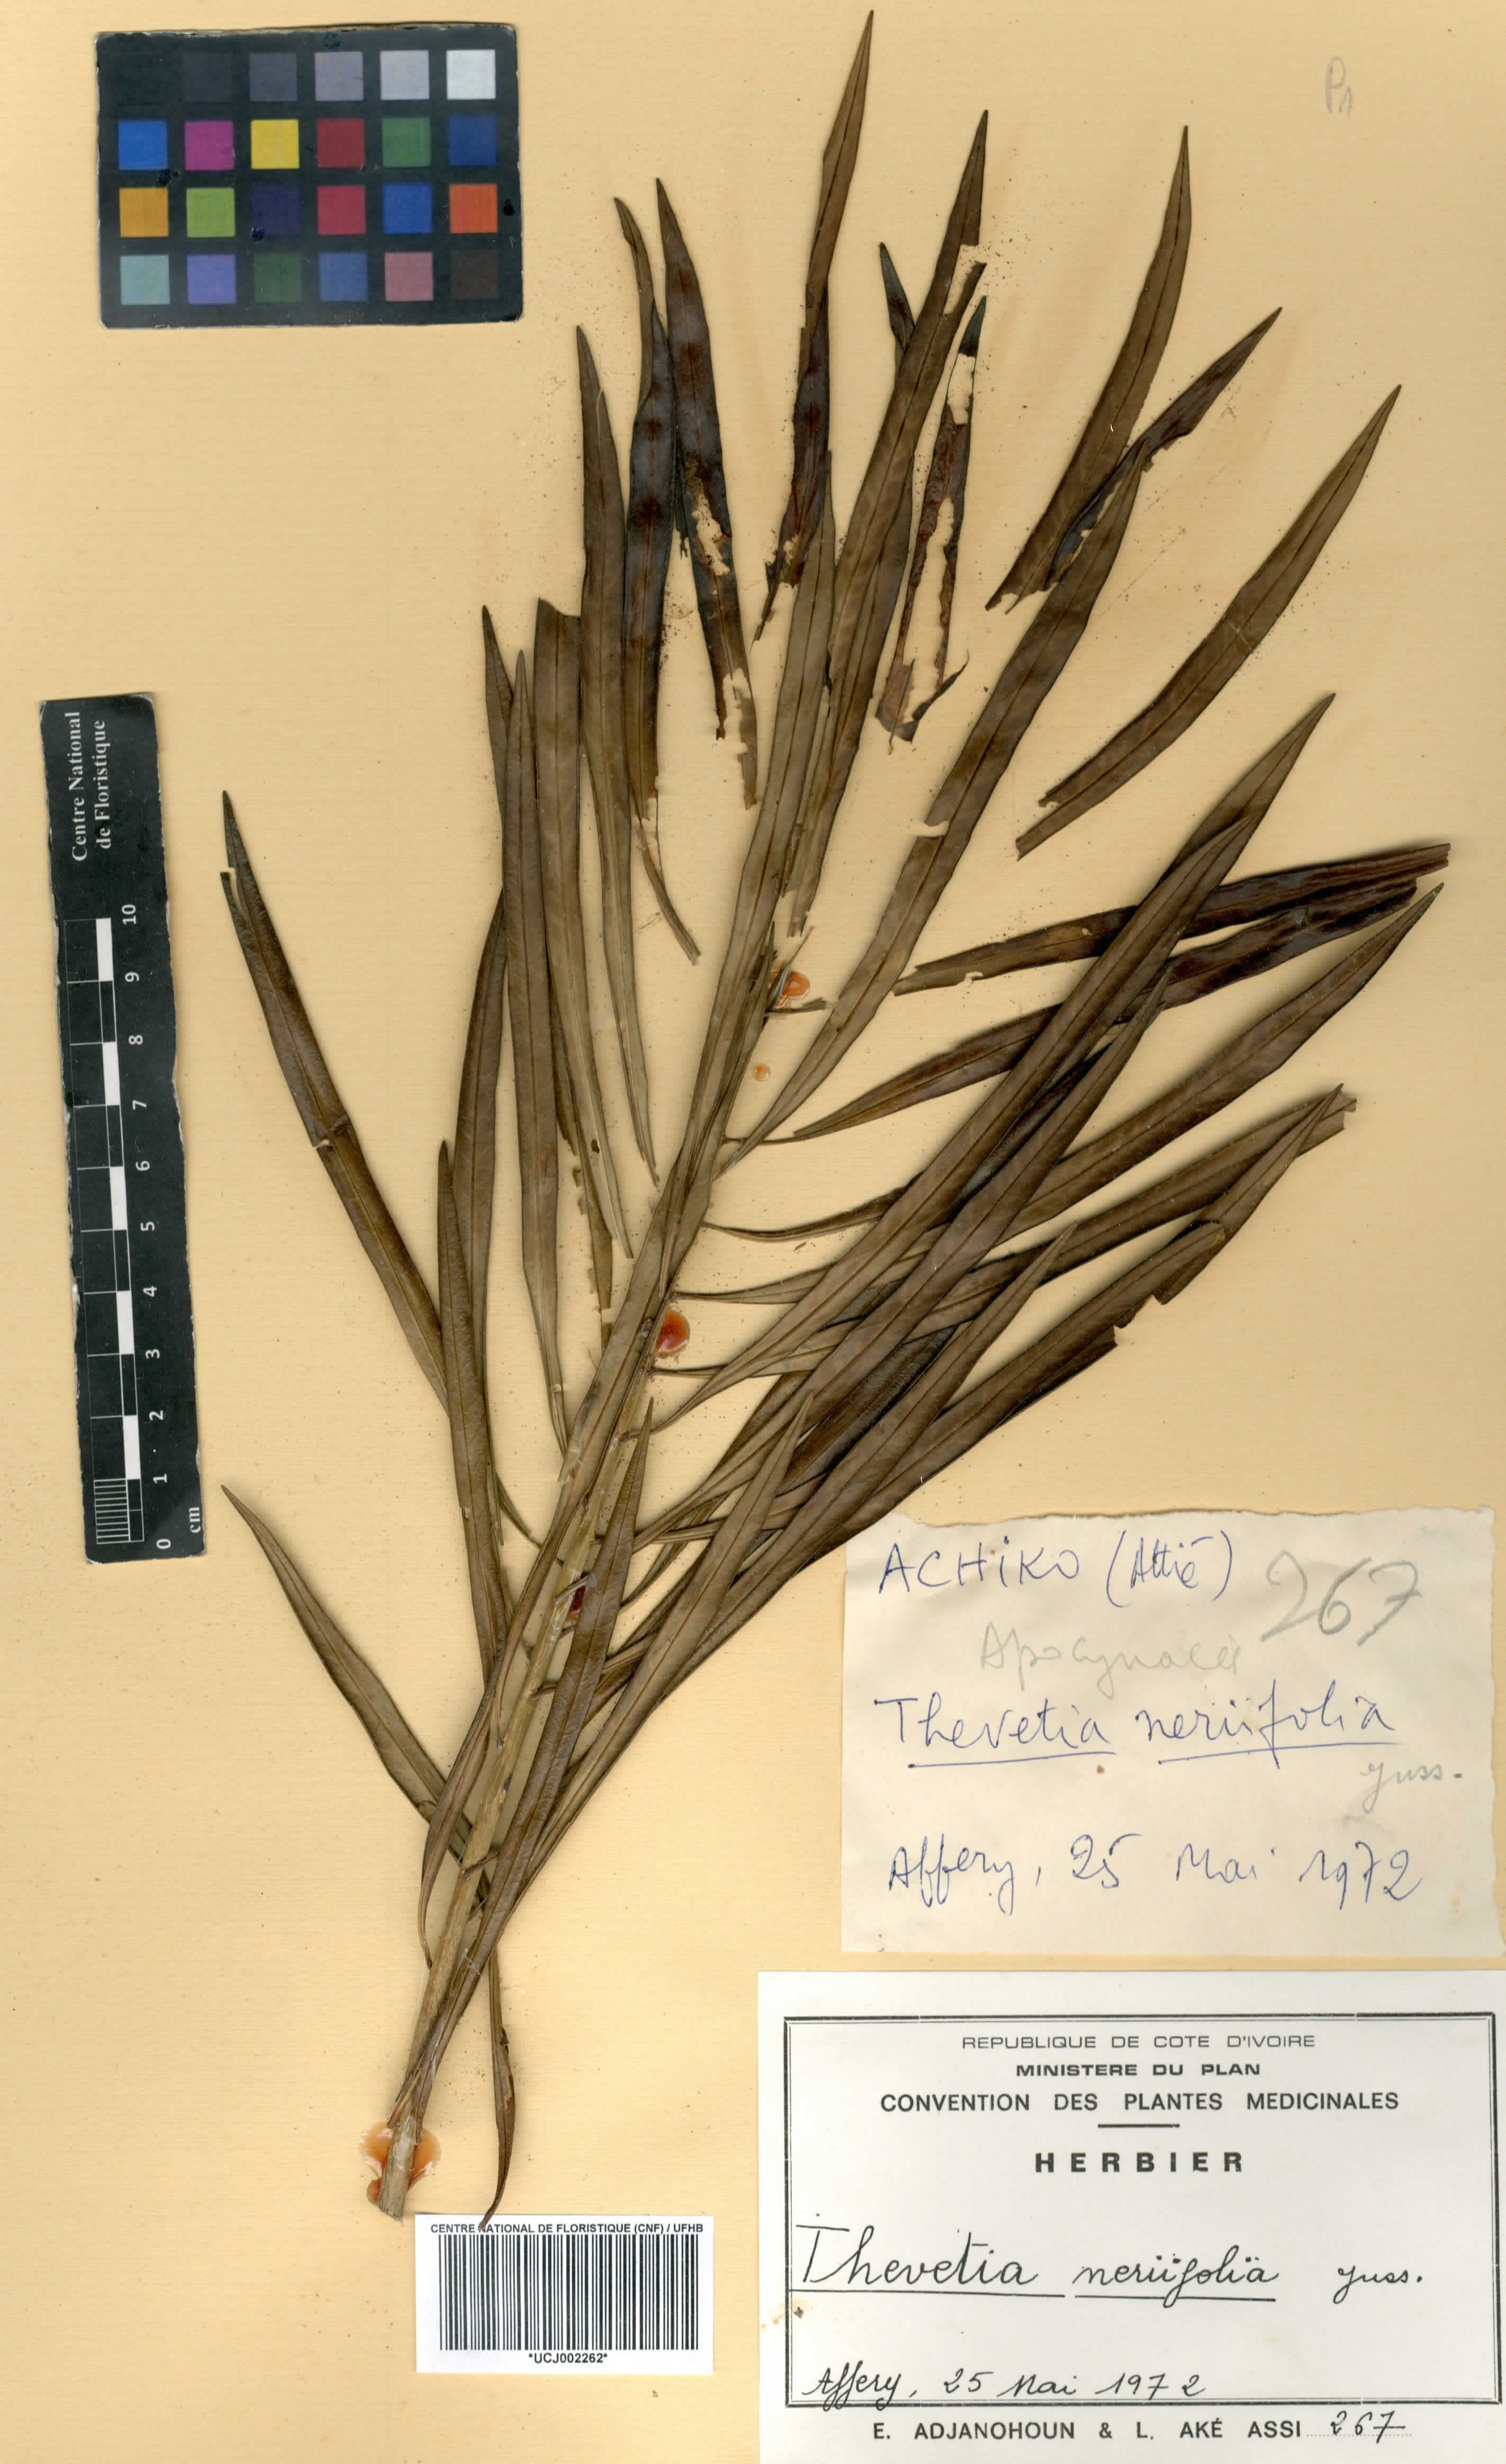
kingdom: Plantae
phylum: Tracheophyta
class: Magnoliopsida
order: Gentianales
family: Apocynaceae
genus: Cascabela
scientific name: Cascabela thevetia
